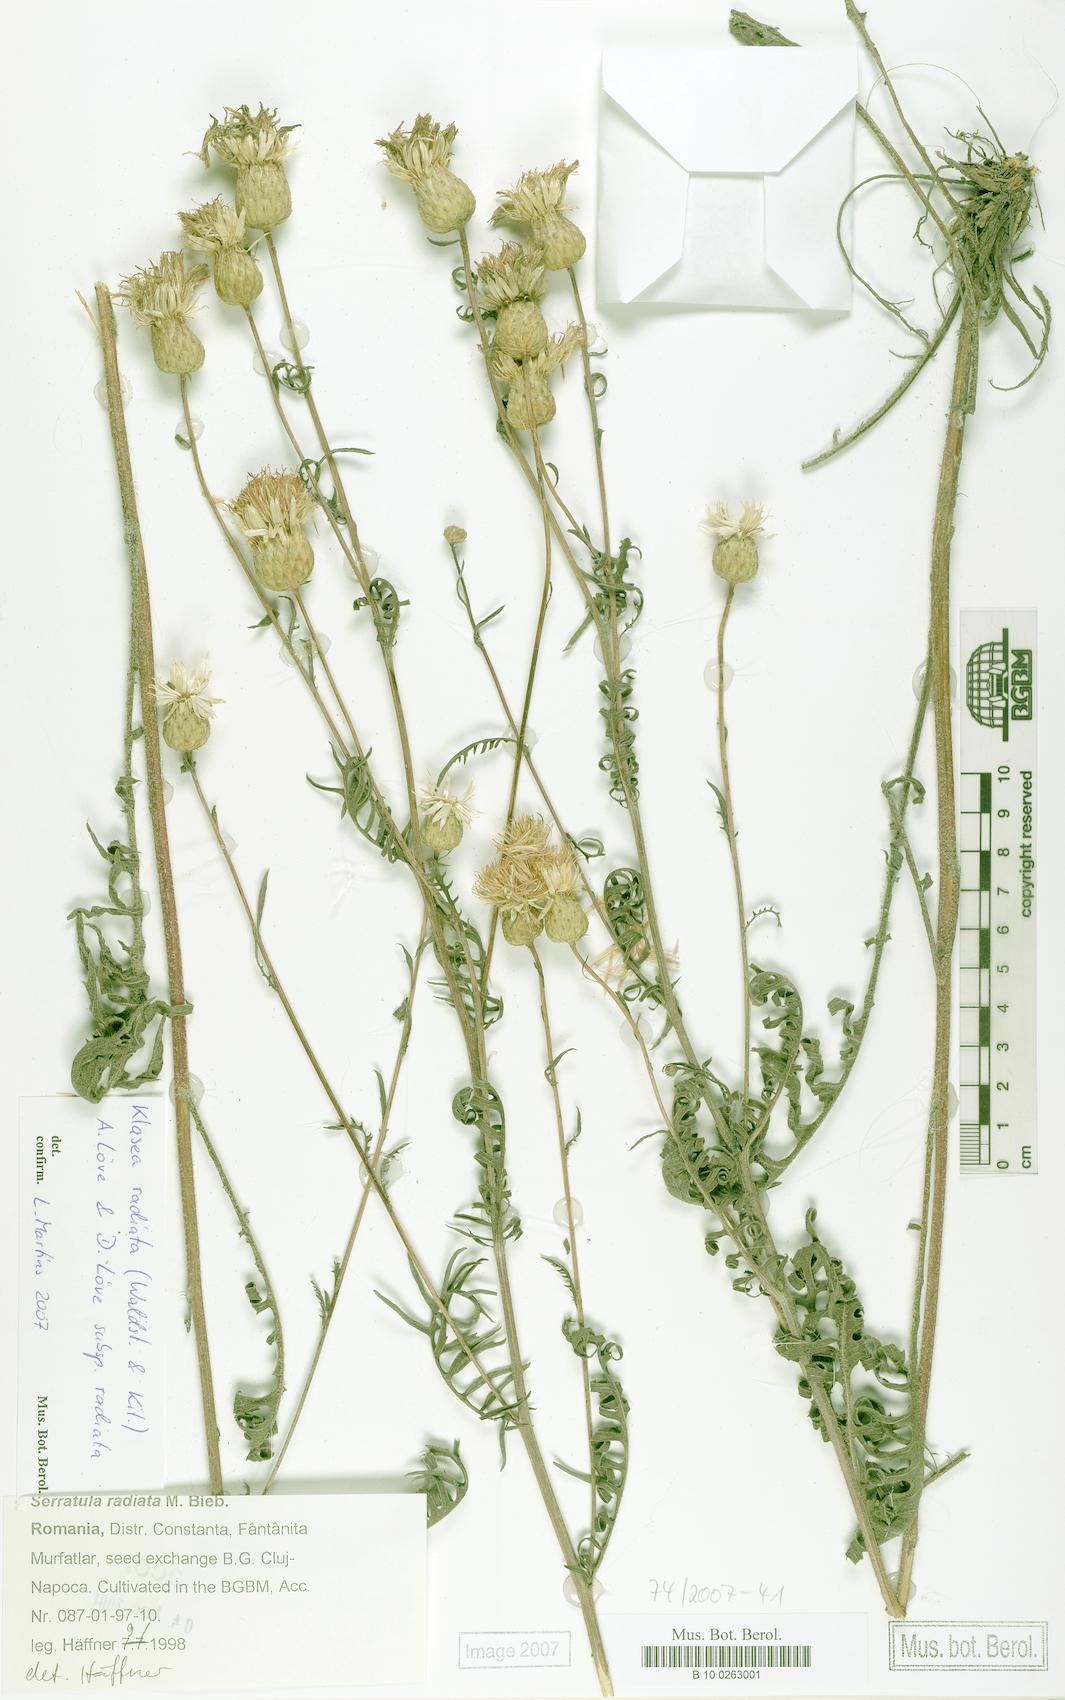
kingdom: Plantae
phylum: Tracheophyta
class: Magnoliopsida
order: Asterales
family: Asteraceae
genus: Klasea
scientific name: Klasea radiata
